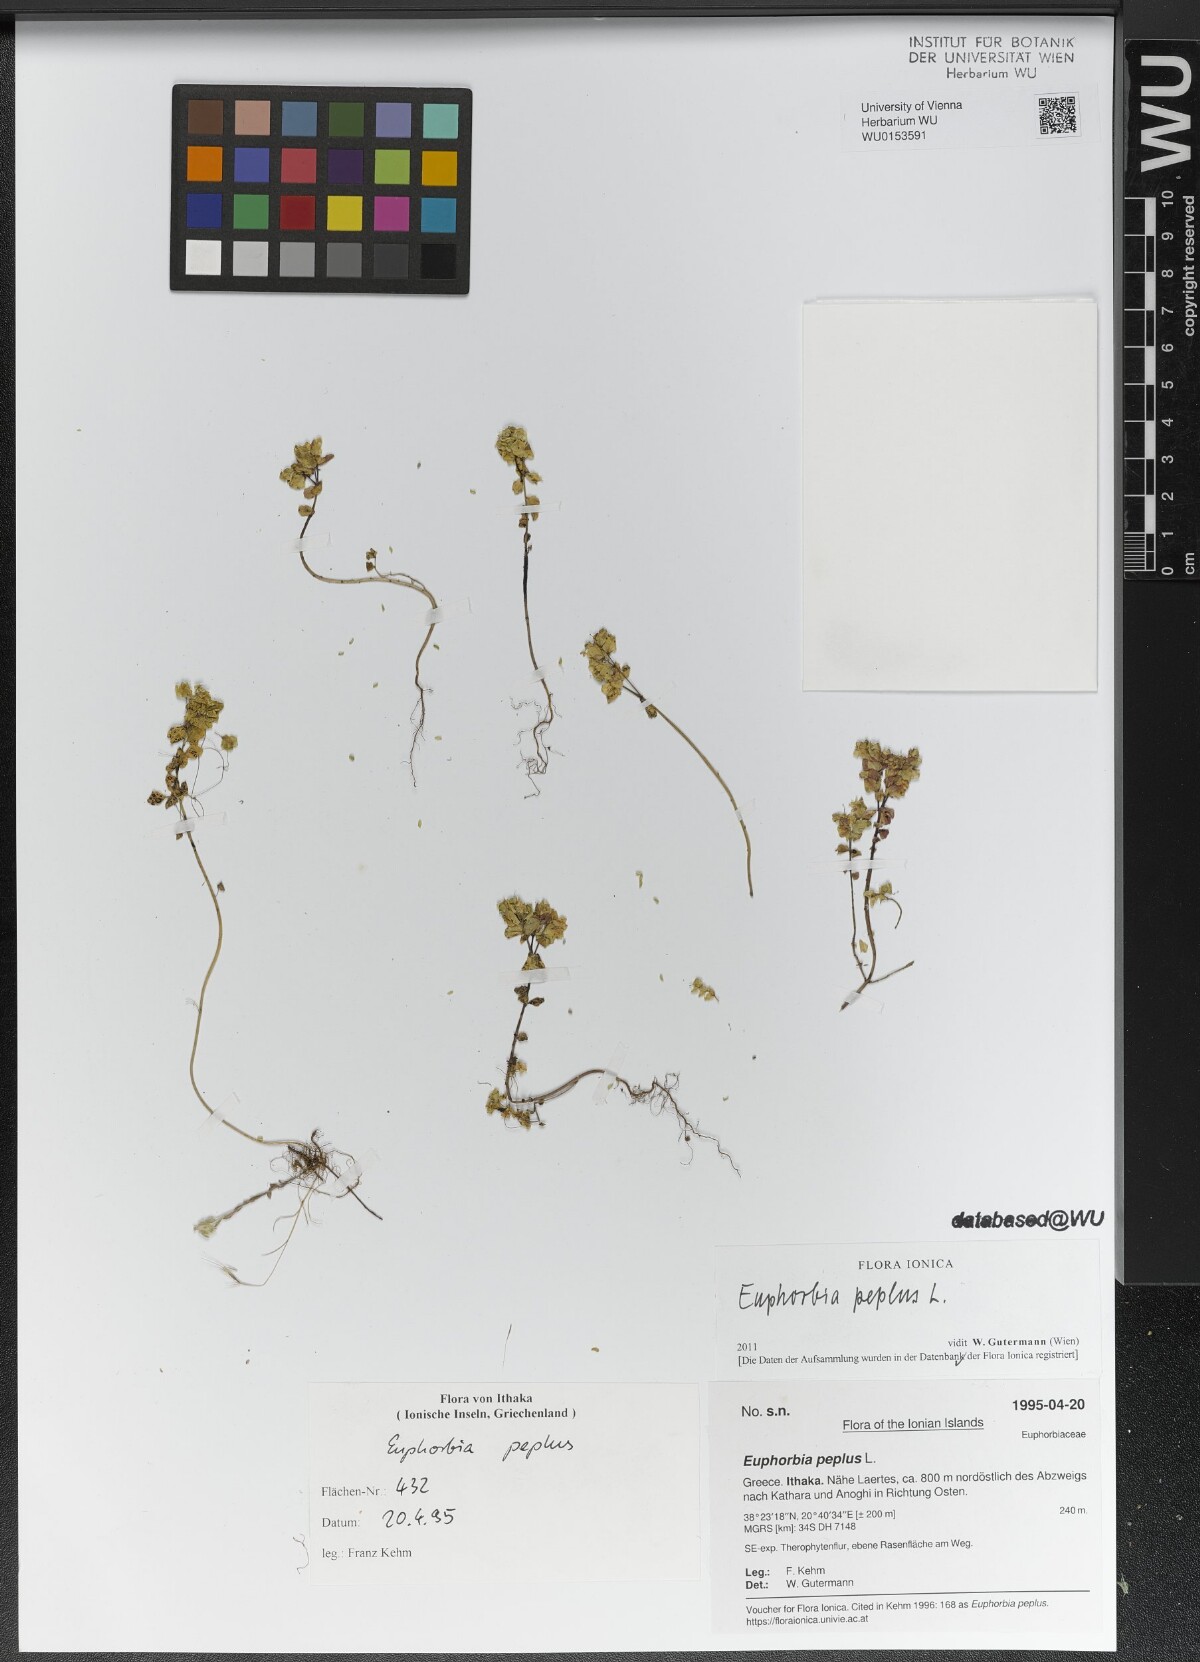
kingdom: Plantae
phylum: Tracheophyta
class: Magnoliopsida
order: Malpighiales
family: Euphorbiaceae
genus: Euphorbia
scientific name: Euphorbia peplus
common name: Petty spurge
